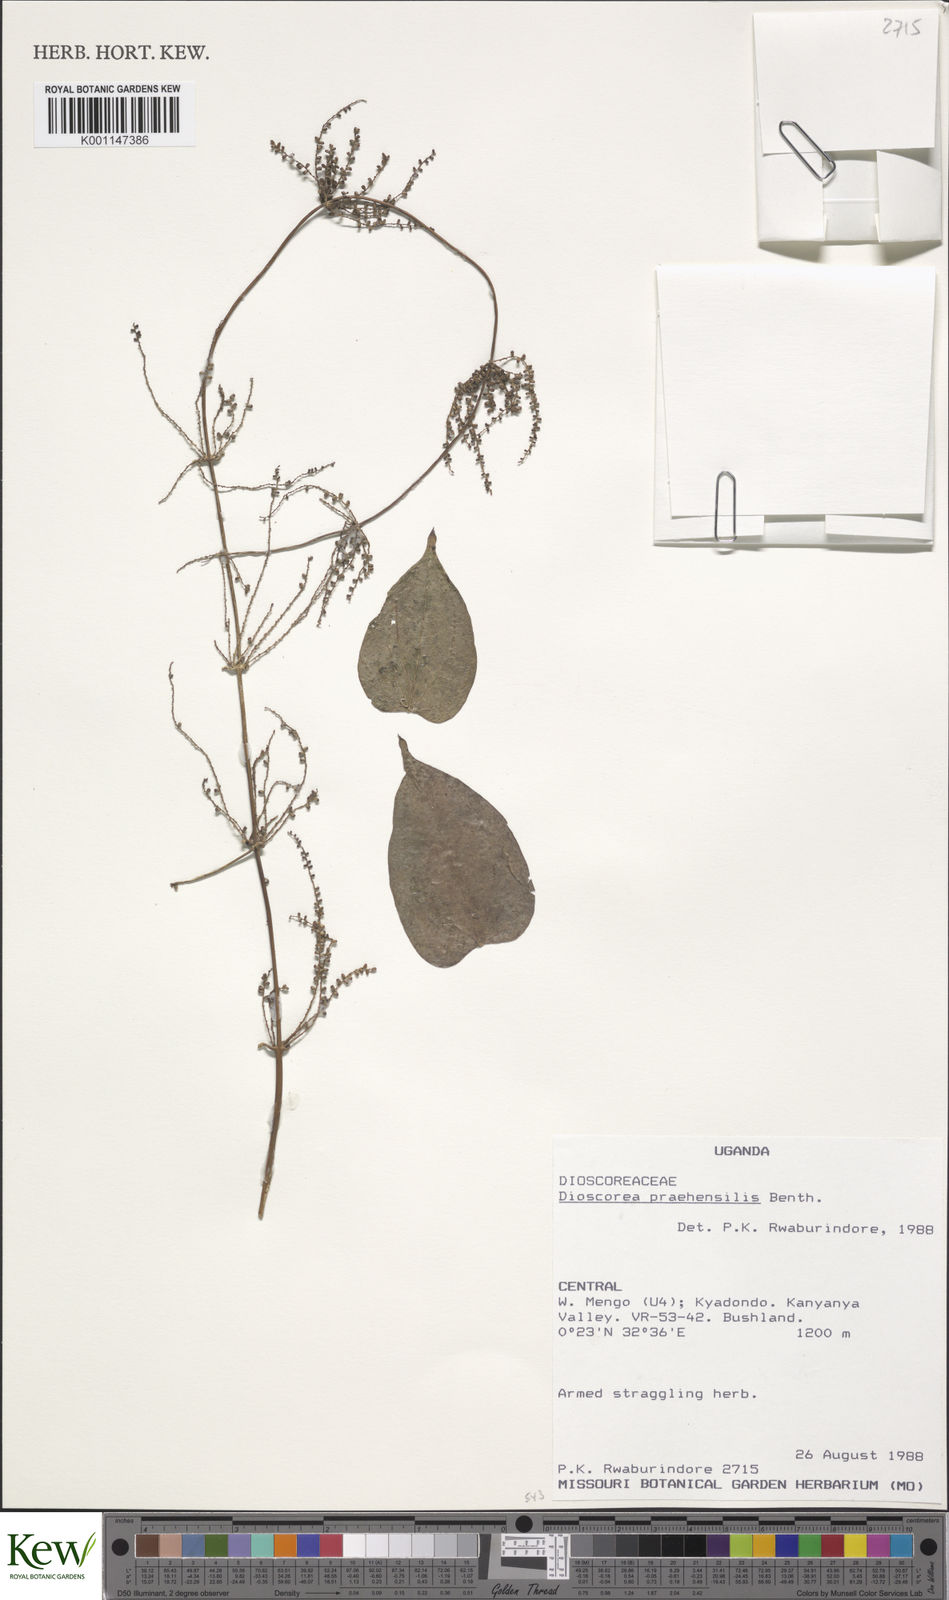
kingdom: Plantae
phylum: Tracheophyta
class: Liliopsida
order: Dioscoreales
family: Dioscoreaceae
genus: Dioscorea
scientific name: Dioscorea praehensilis
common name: Bush yam
